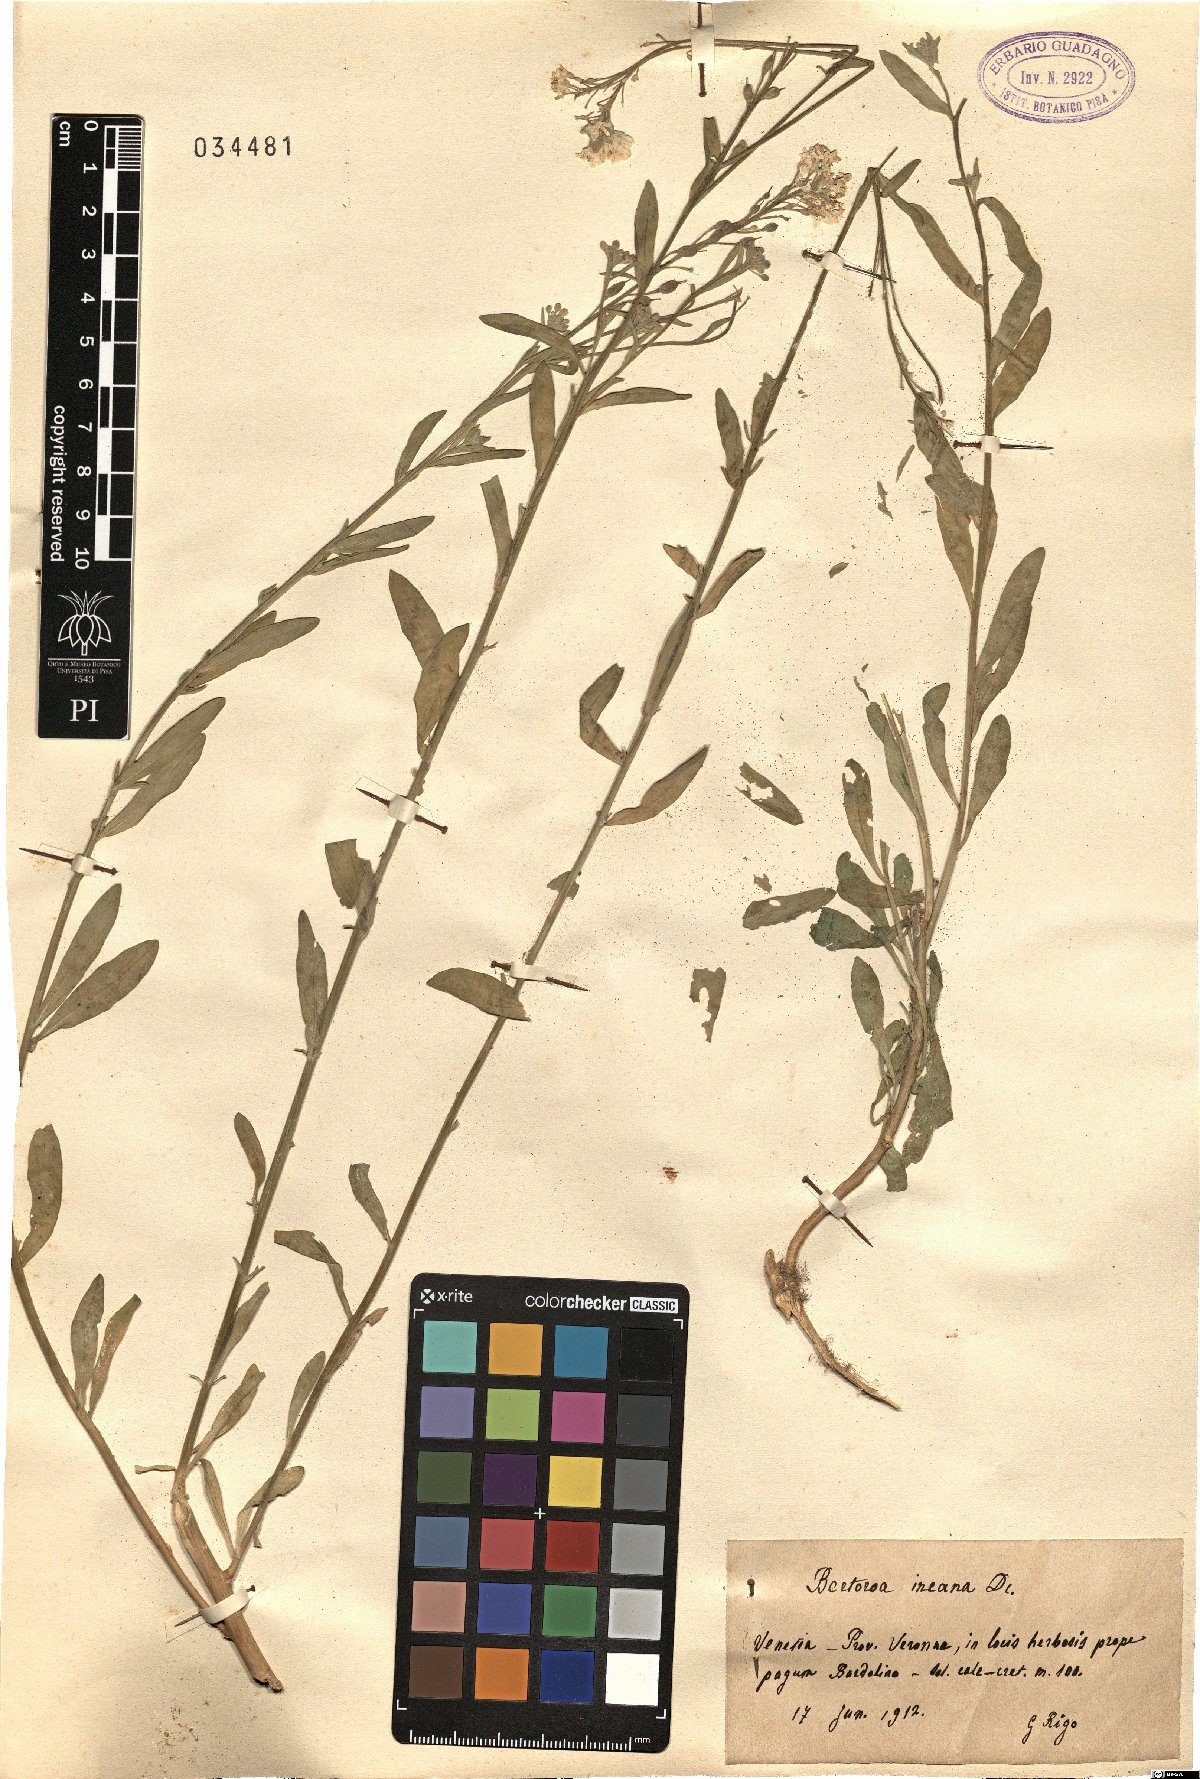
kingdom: Plantae
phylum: Tracheophyta
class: Magnoliopsida
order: Brassicales
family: Brassicaceae
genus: Berteroa
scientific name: Berteroa incana
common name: Hoary alison
